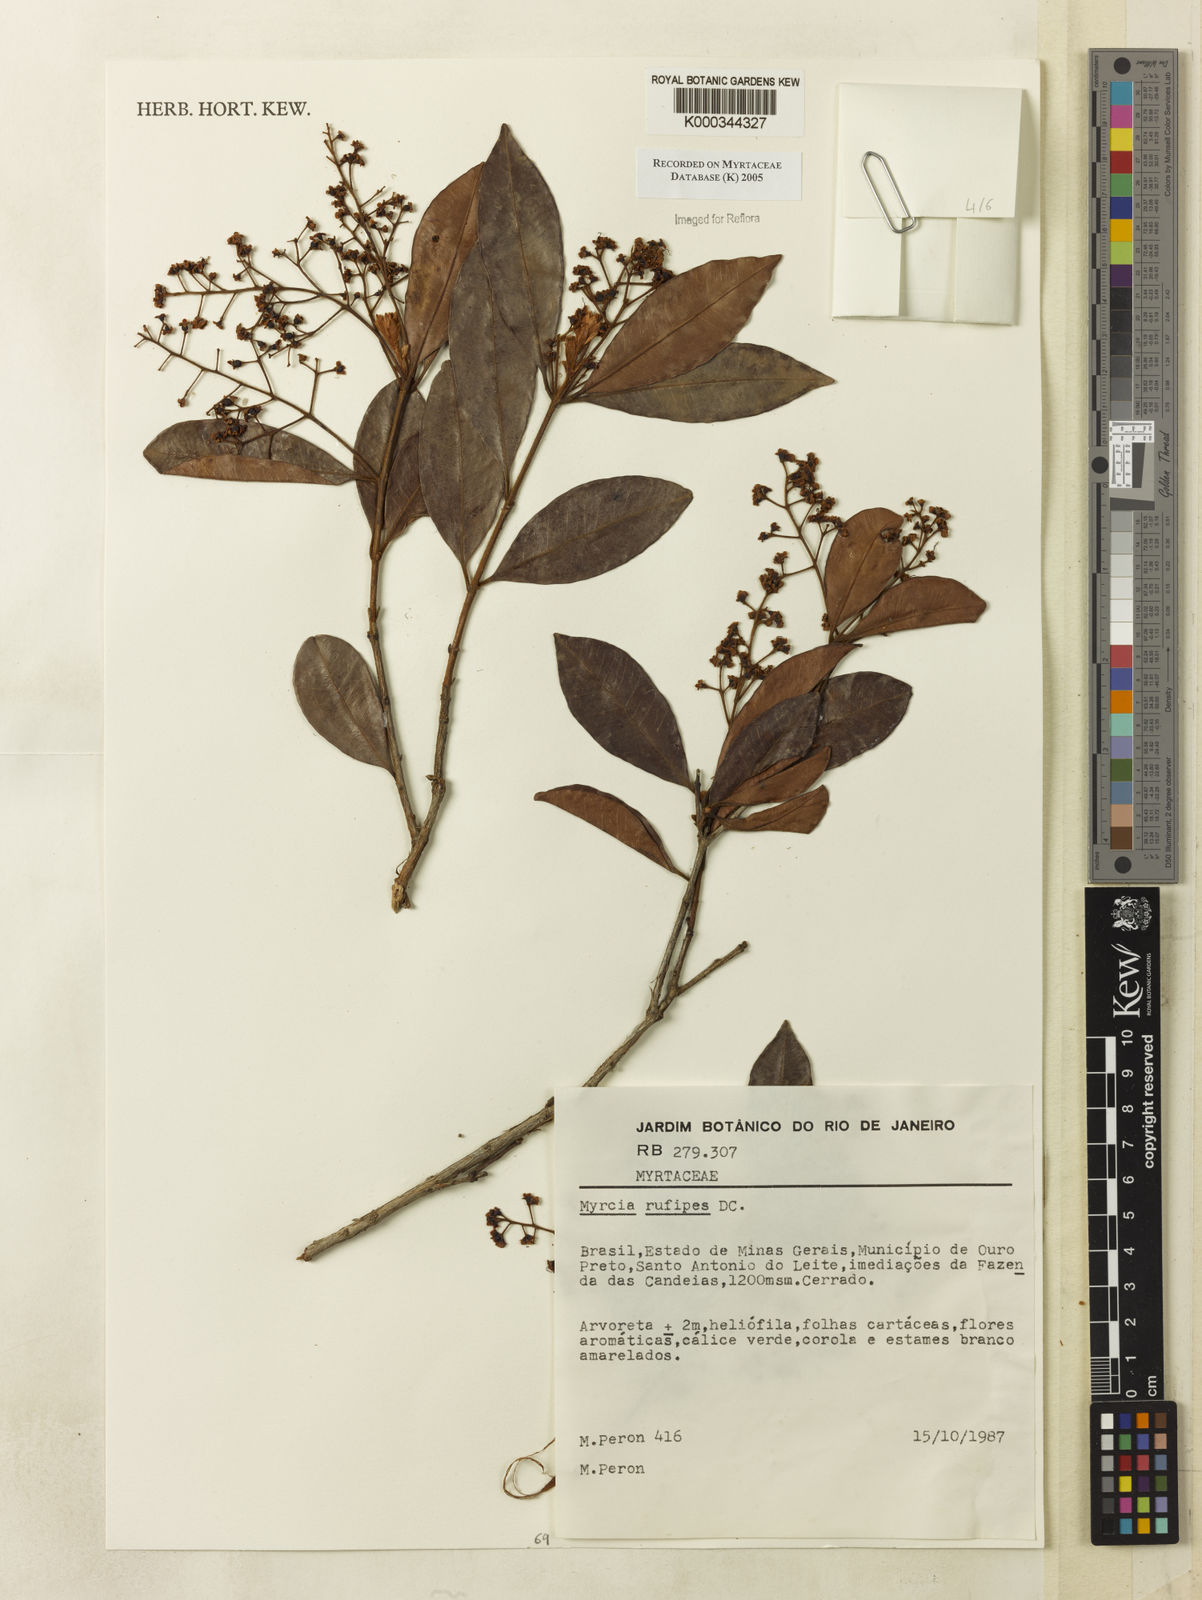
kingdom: Plantae
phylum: Tracheophyta
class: Magnoliopsida
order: Myrtales
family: Myrtaceae
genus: Myrcia
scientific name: Myrcia rufipes
